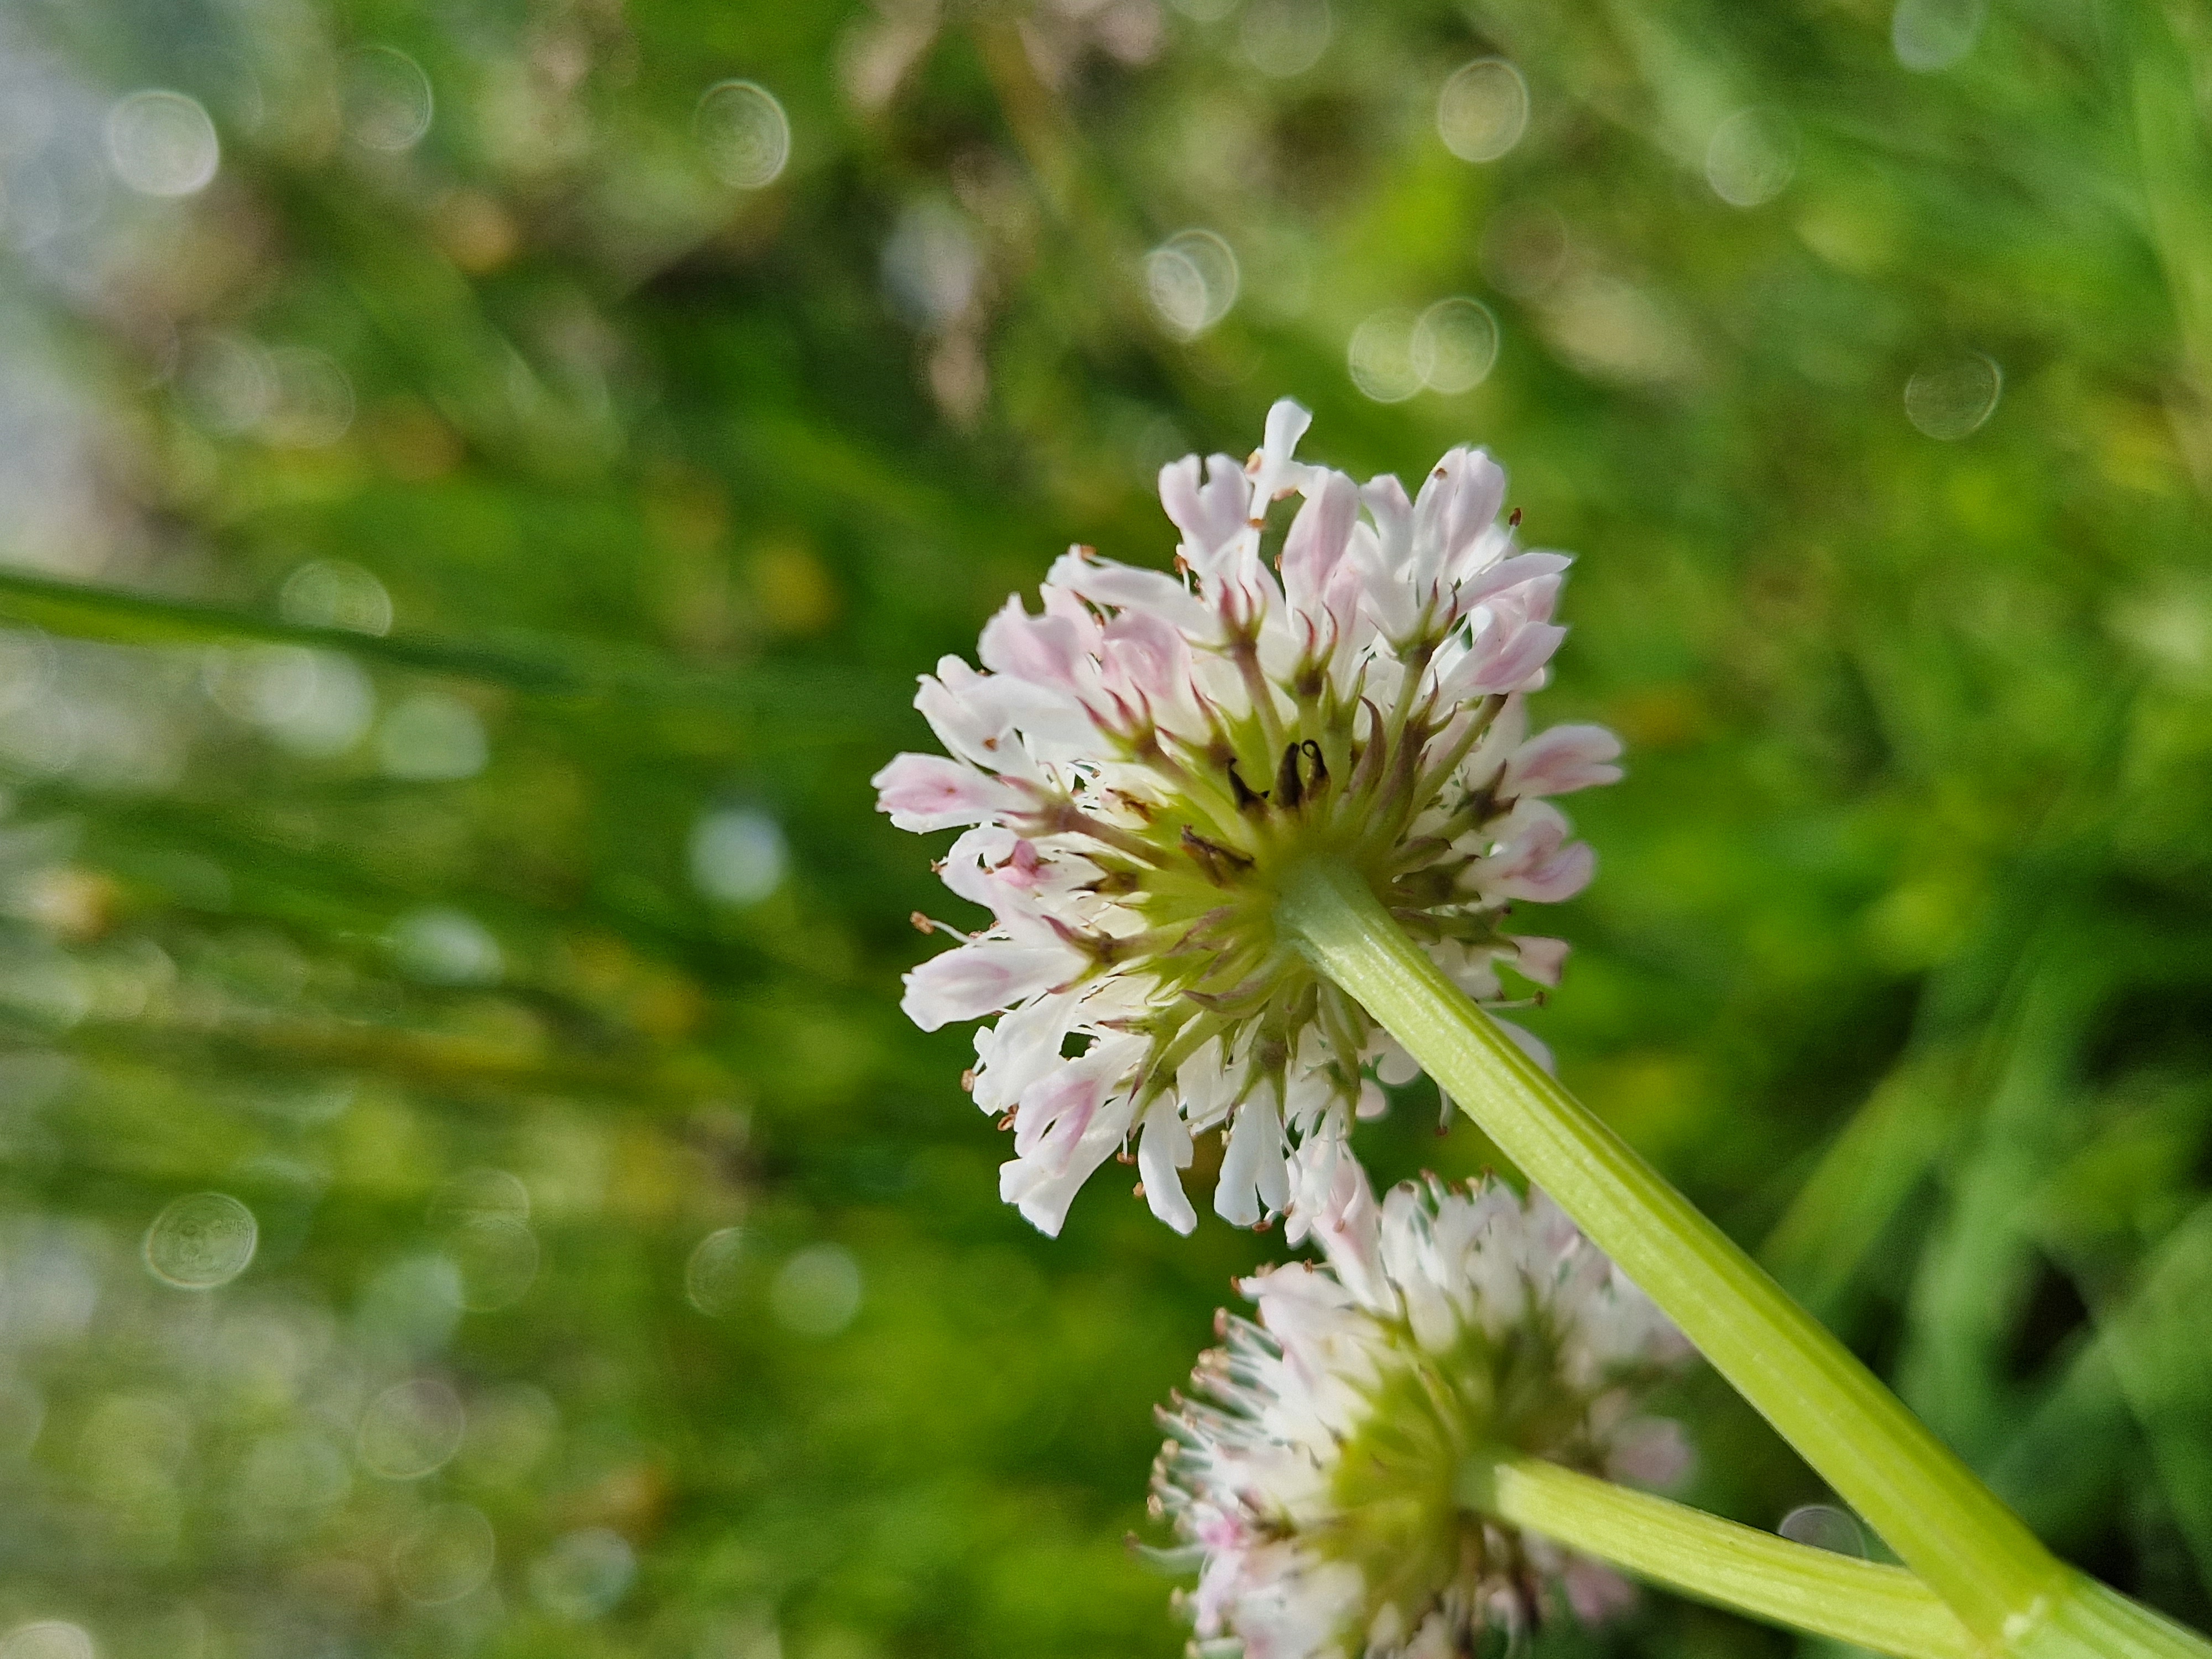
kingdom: Plantae
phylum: Tracheophyta
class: Magnoliopsida
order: Apiales
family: Apiaceae
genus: Oenanthe
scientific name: Oenanthe fistulosa
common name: Vand-klaseskærm
